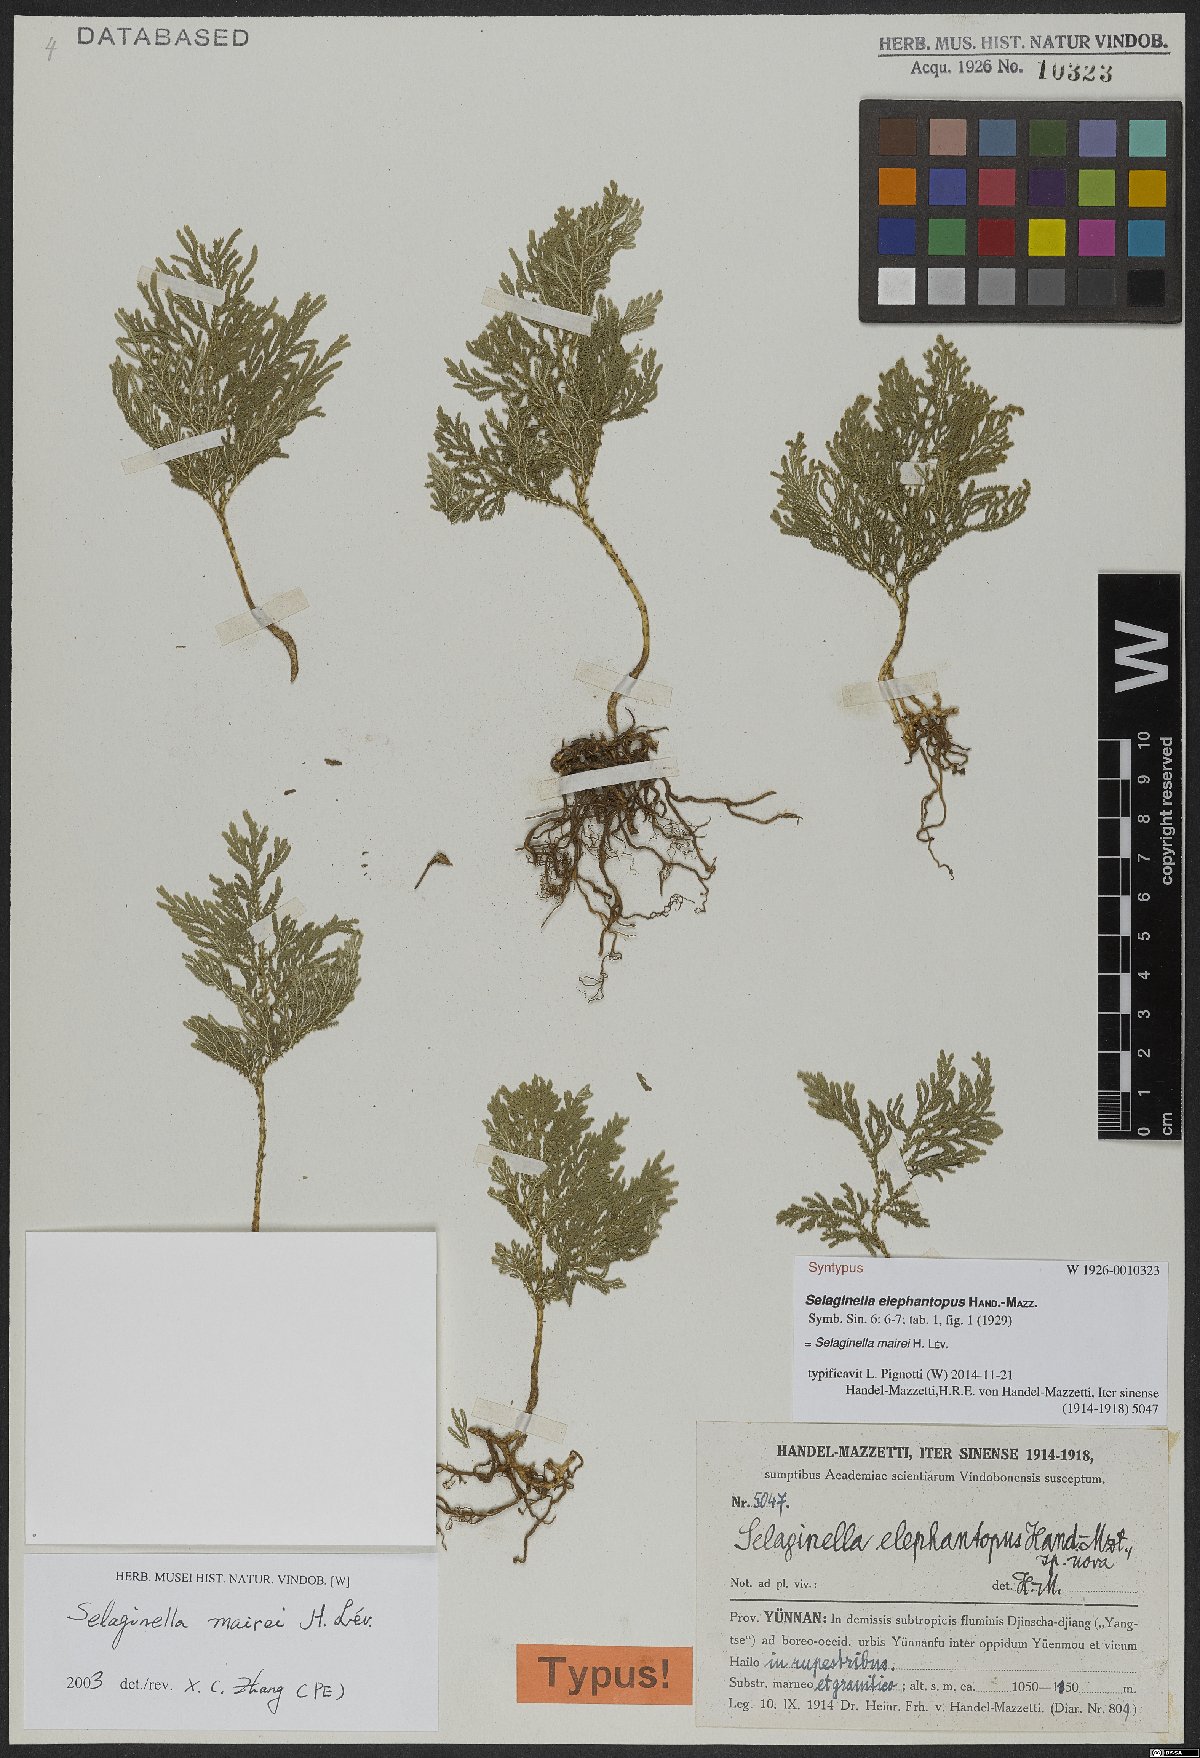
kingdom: Plantae
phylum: Tracheophyta
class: Lycopodiopsida
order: Selaginellales
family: Selaginellaceae
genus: Selaginella
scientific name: Selaginella mairei
